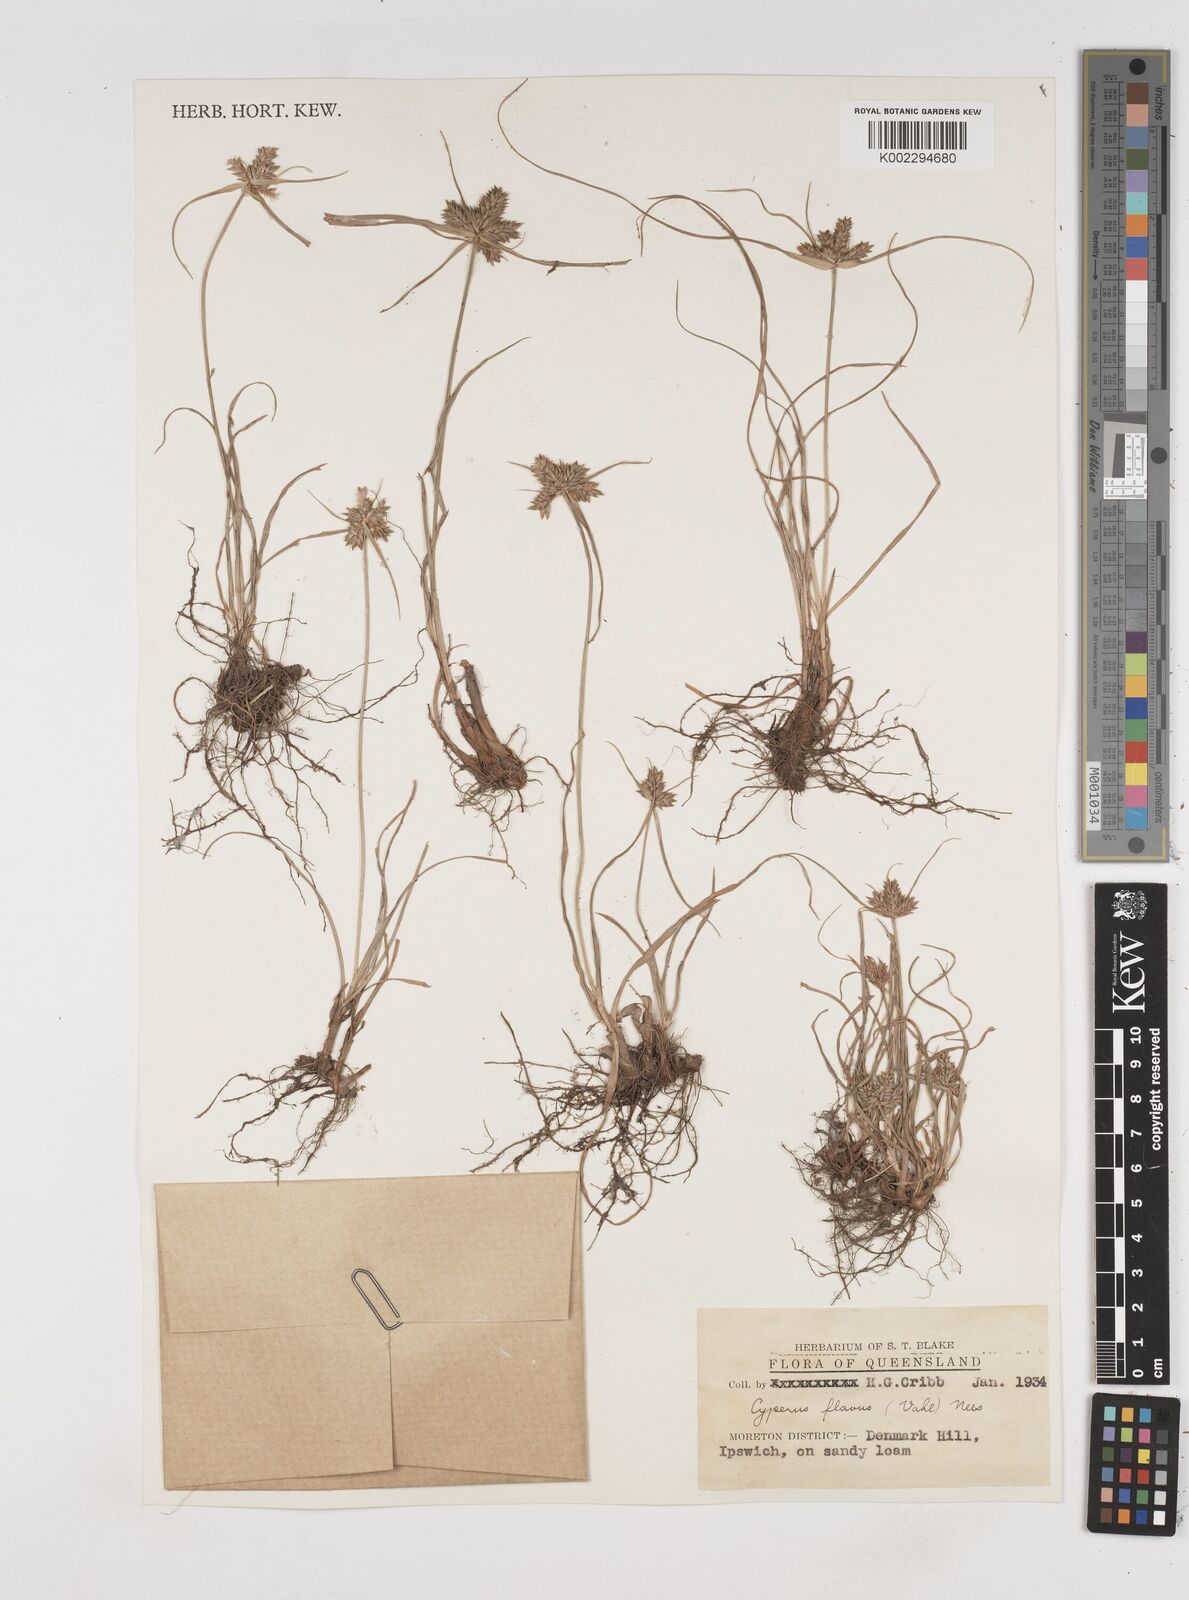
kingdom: Plantae
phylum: Tracheophyta
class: Liliopsida
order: Poales
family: Cyperaceae
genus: Cyperus
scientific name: Cyperus aggregatus
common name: Inflatedscale flatsedge
